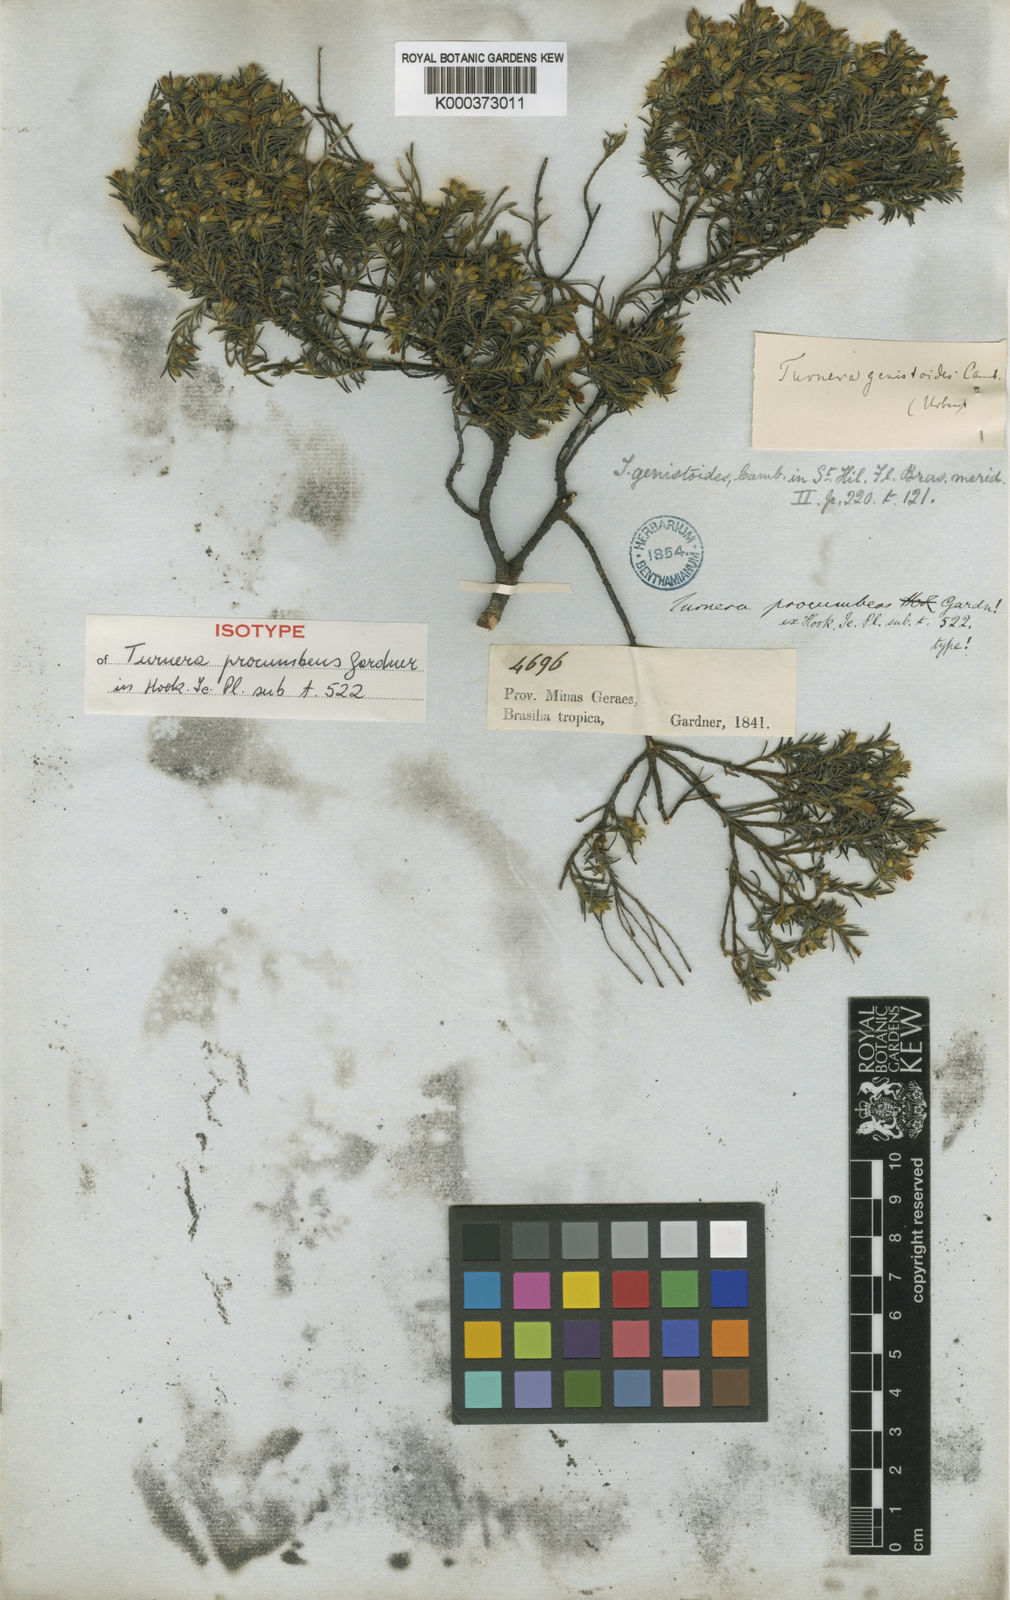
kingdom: Plantae
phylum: Tracheophyta
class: Magnoliopsida
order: Malpighiales
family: Turneraceae
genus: Turnera
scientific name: Turnera genistoides
